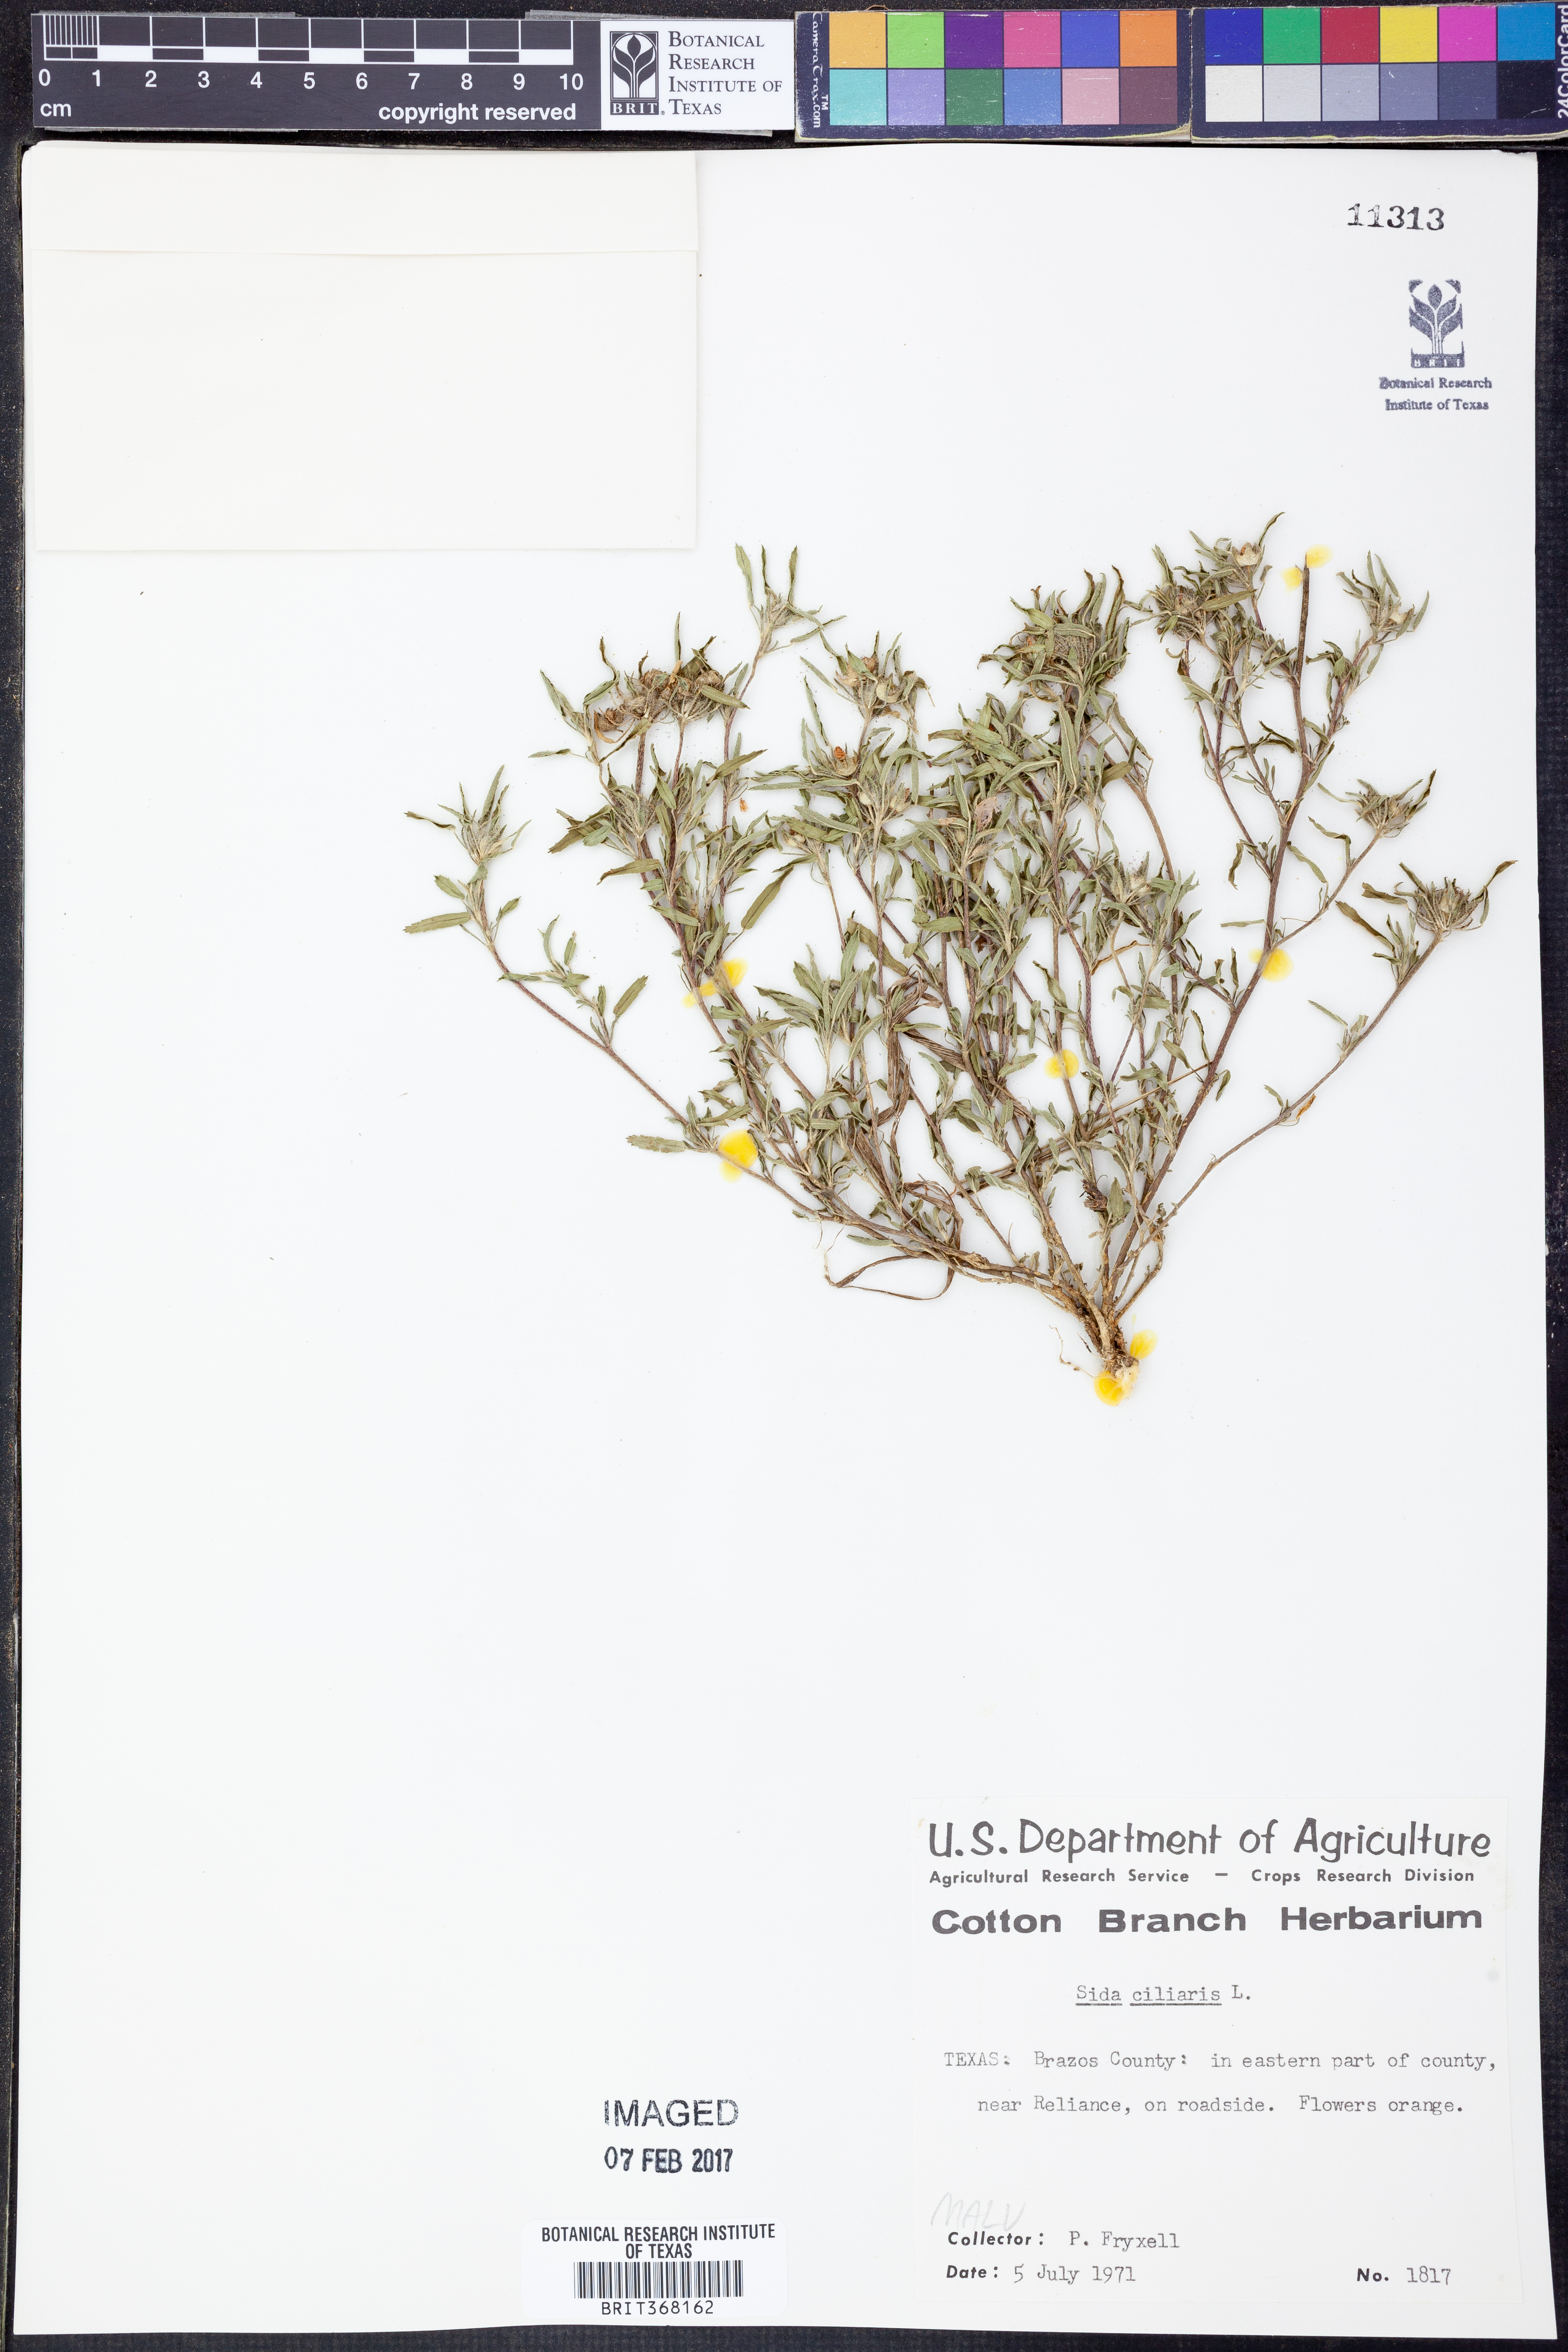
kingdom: Plantae
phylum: Tracheophyta
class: Magnoliopsida
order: Malvales
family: Malvaceae
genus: Sida
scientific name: Sida ciliaris
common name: Bracted fanpetals
